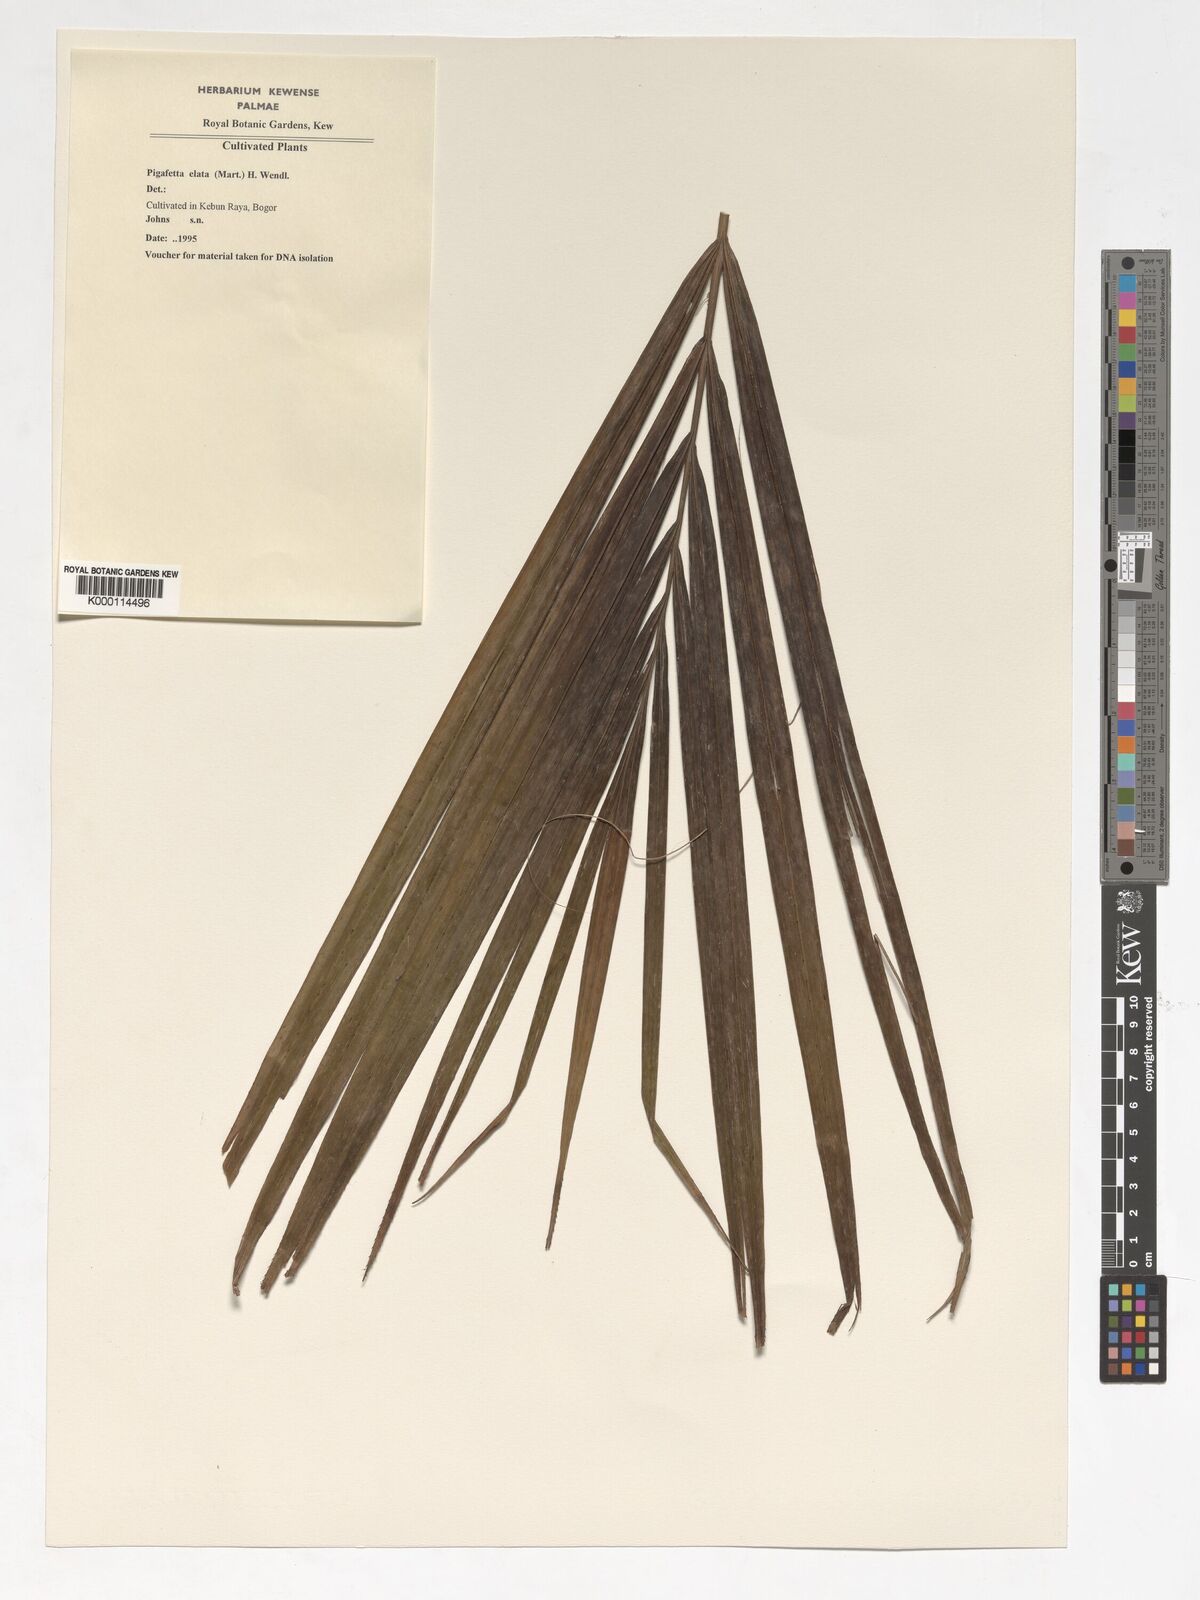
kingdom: Plantae
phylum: Tracheophyta
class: Liliopsida
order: Arecales
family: Arecaceae
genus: Pigafetta
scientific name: Pigafetta elata
